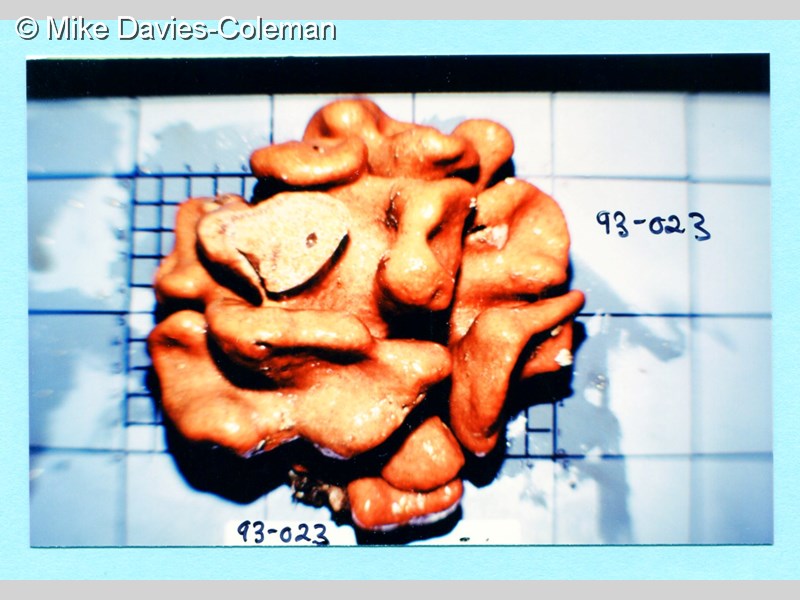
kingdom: Animalia
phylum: Chordata
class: Ascidiacea
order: Aplousobranchia
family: Polyclinidae
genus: Aplidium
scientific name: Aplidium
